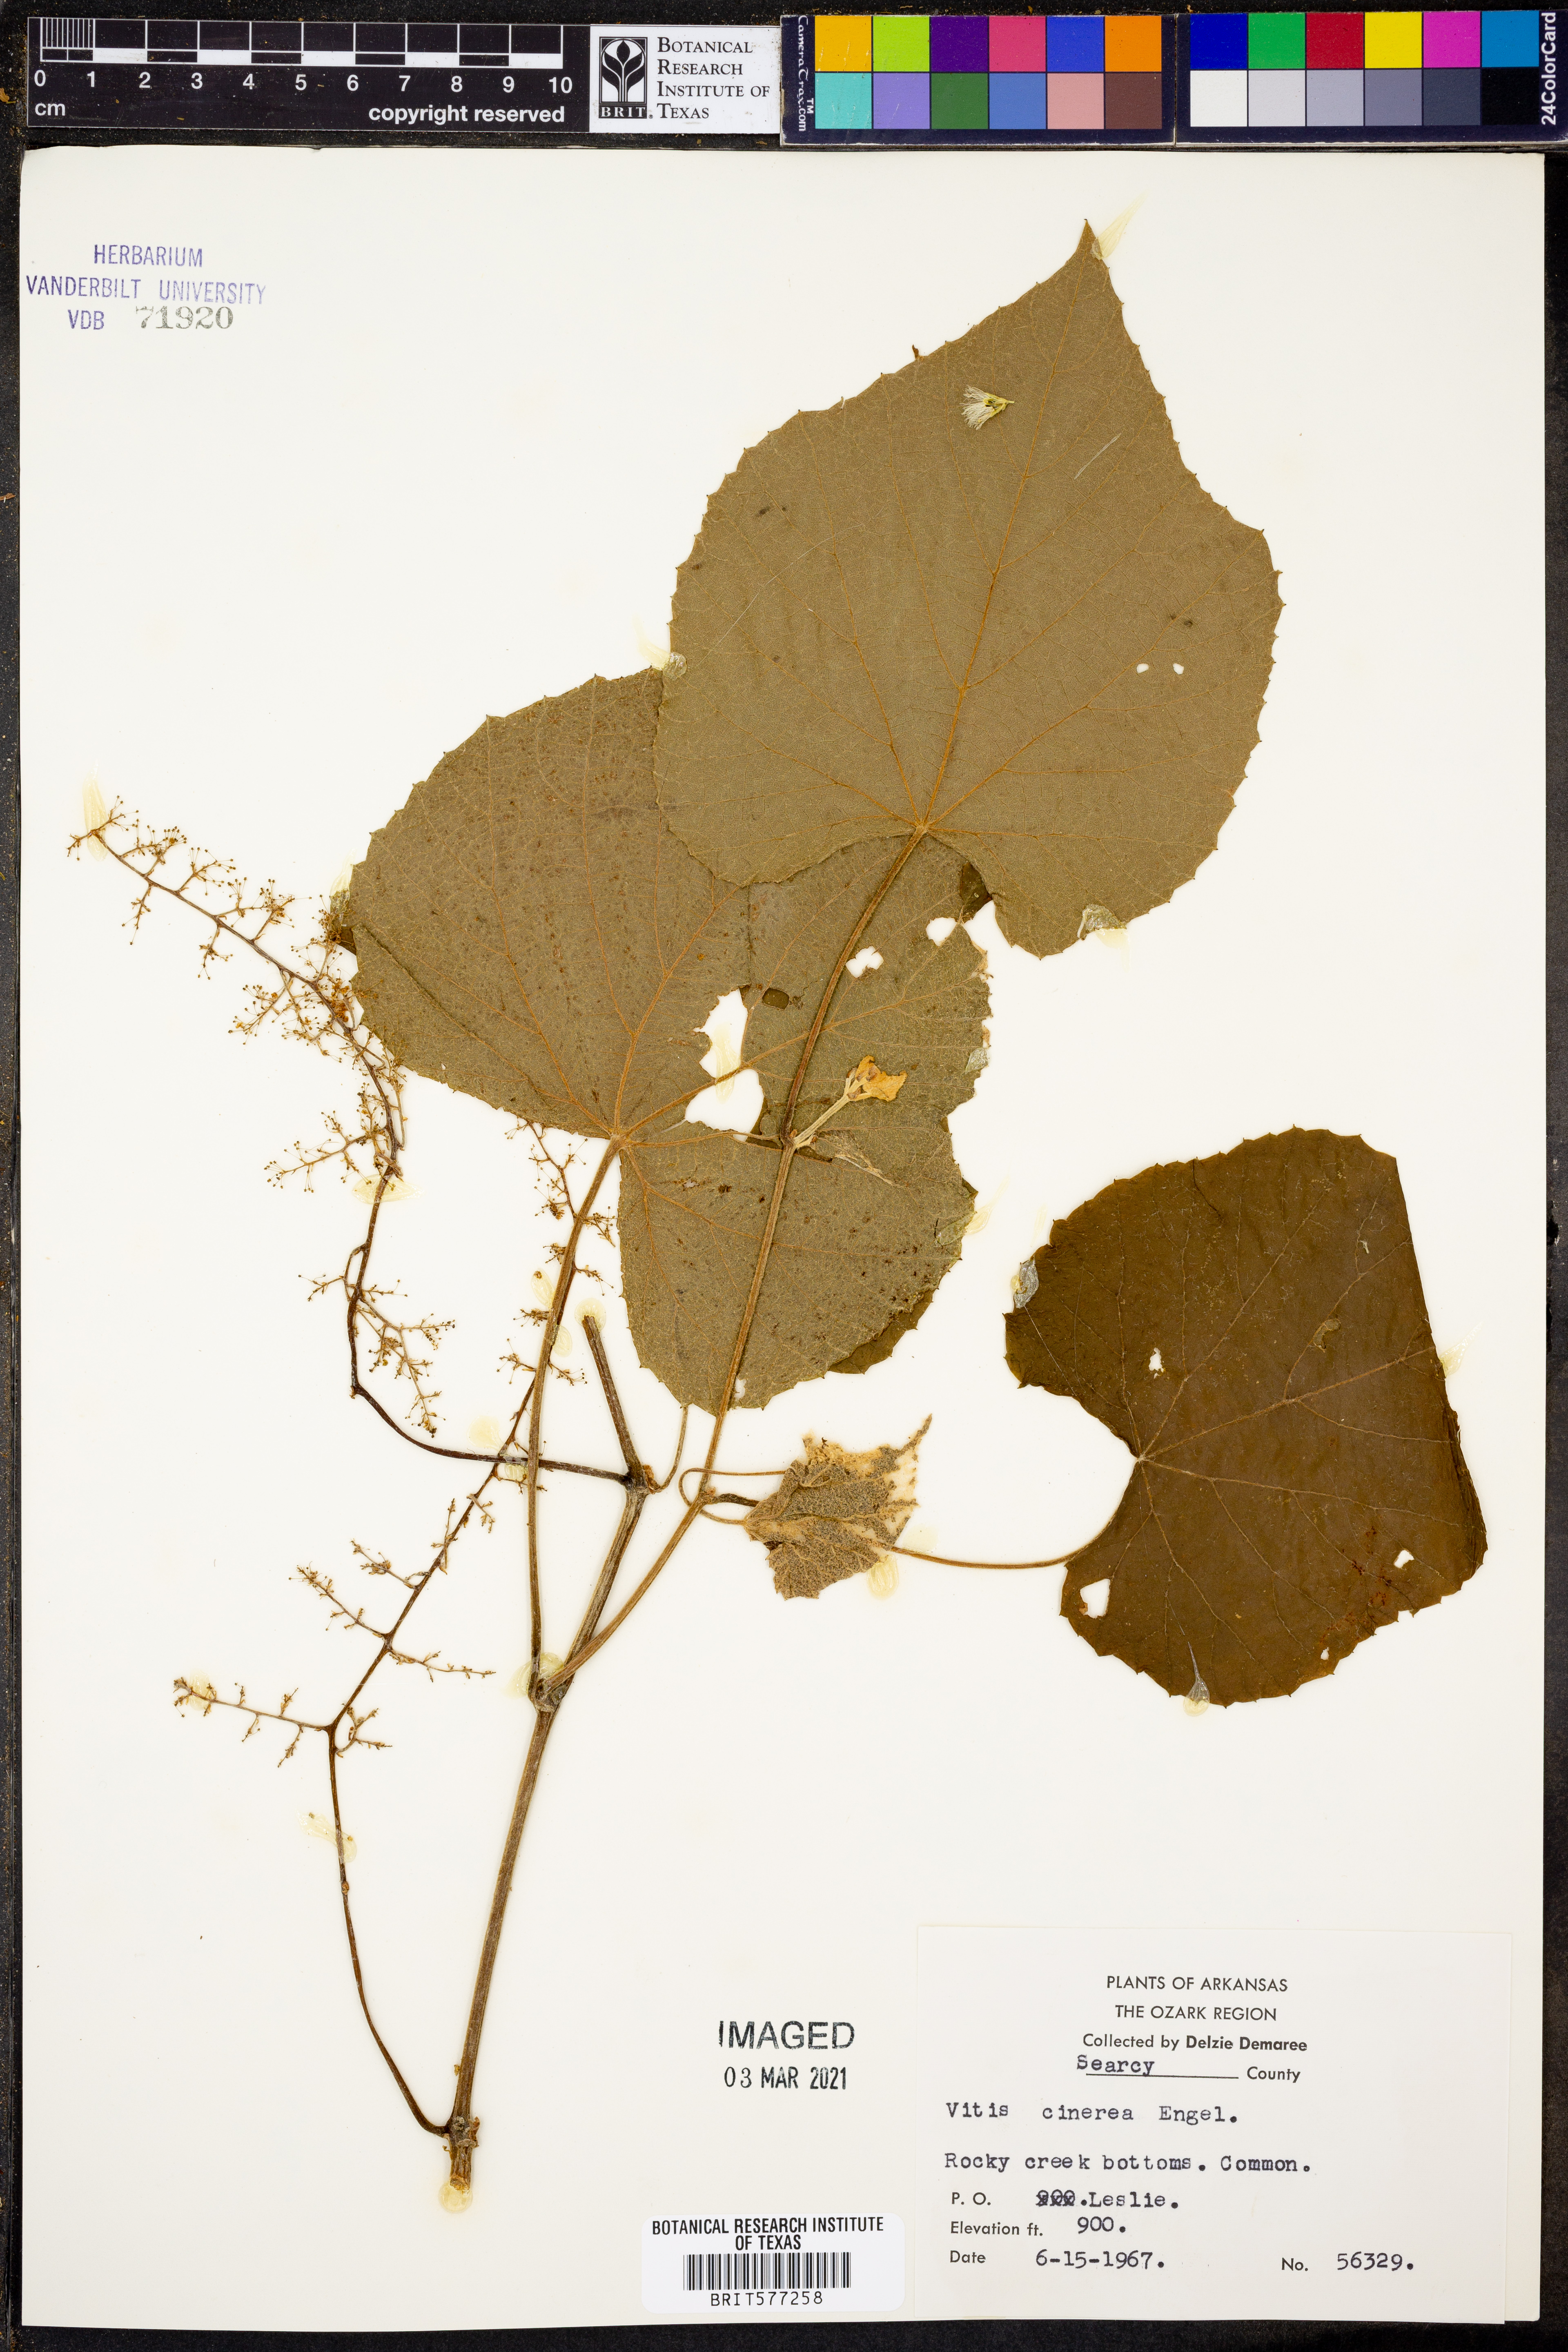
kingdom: Plantae
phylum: Tracheophyta
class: Magnoliopsida
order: Vitales
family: Vitaceae
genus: Vitis
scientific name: Vitis cinerea
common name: Ashy grape
